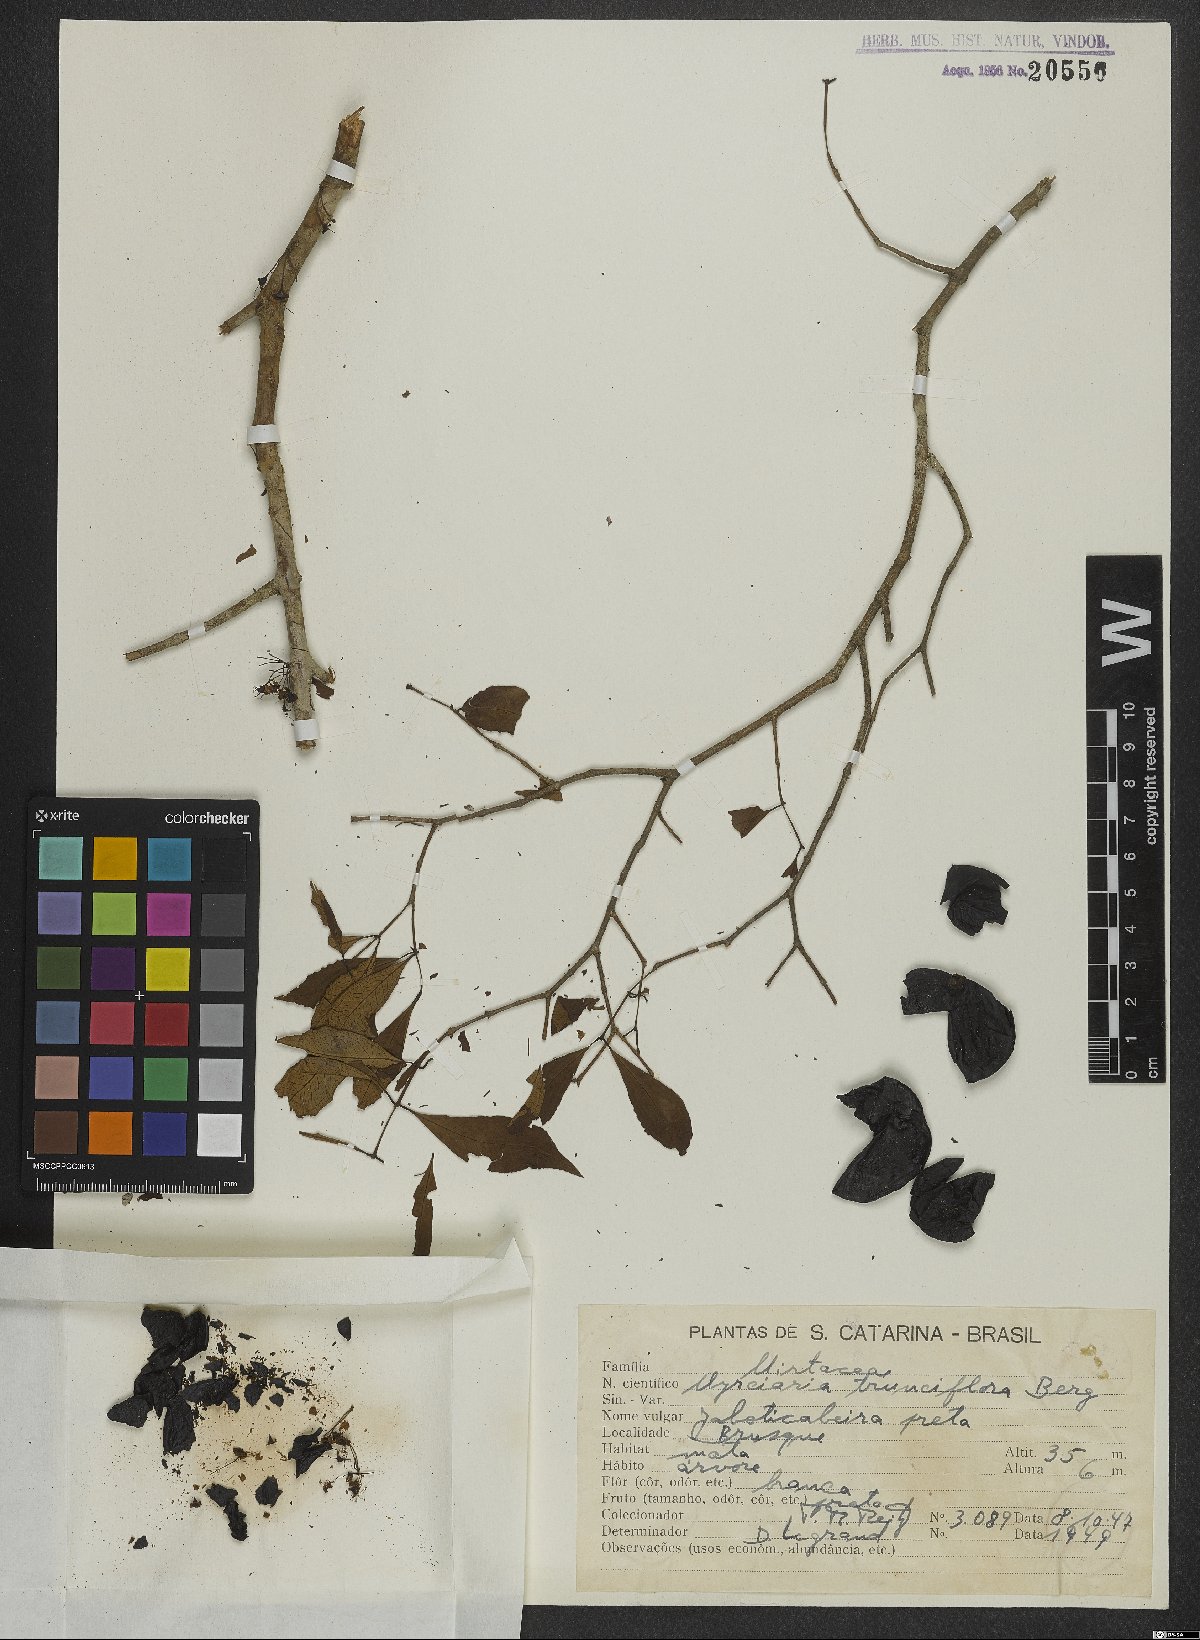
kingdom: Plantae
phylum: Tracheophyta
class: Magnoliopsida
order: Myrtales
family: Myrtaceae
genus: Plinia
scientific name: Plinia trunciflora
